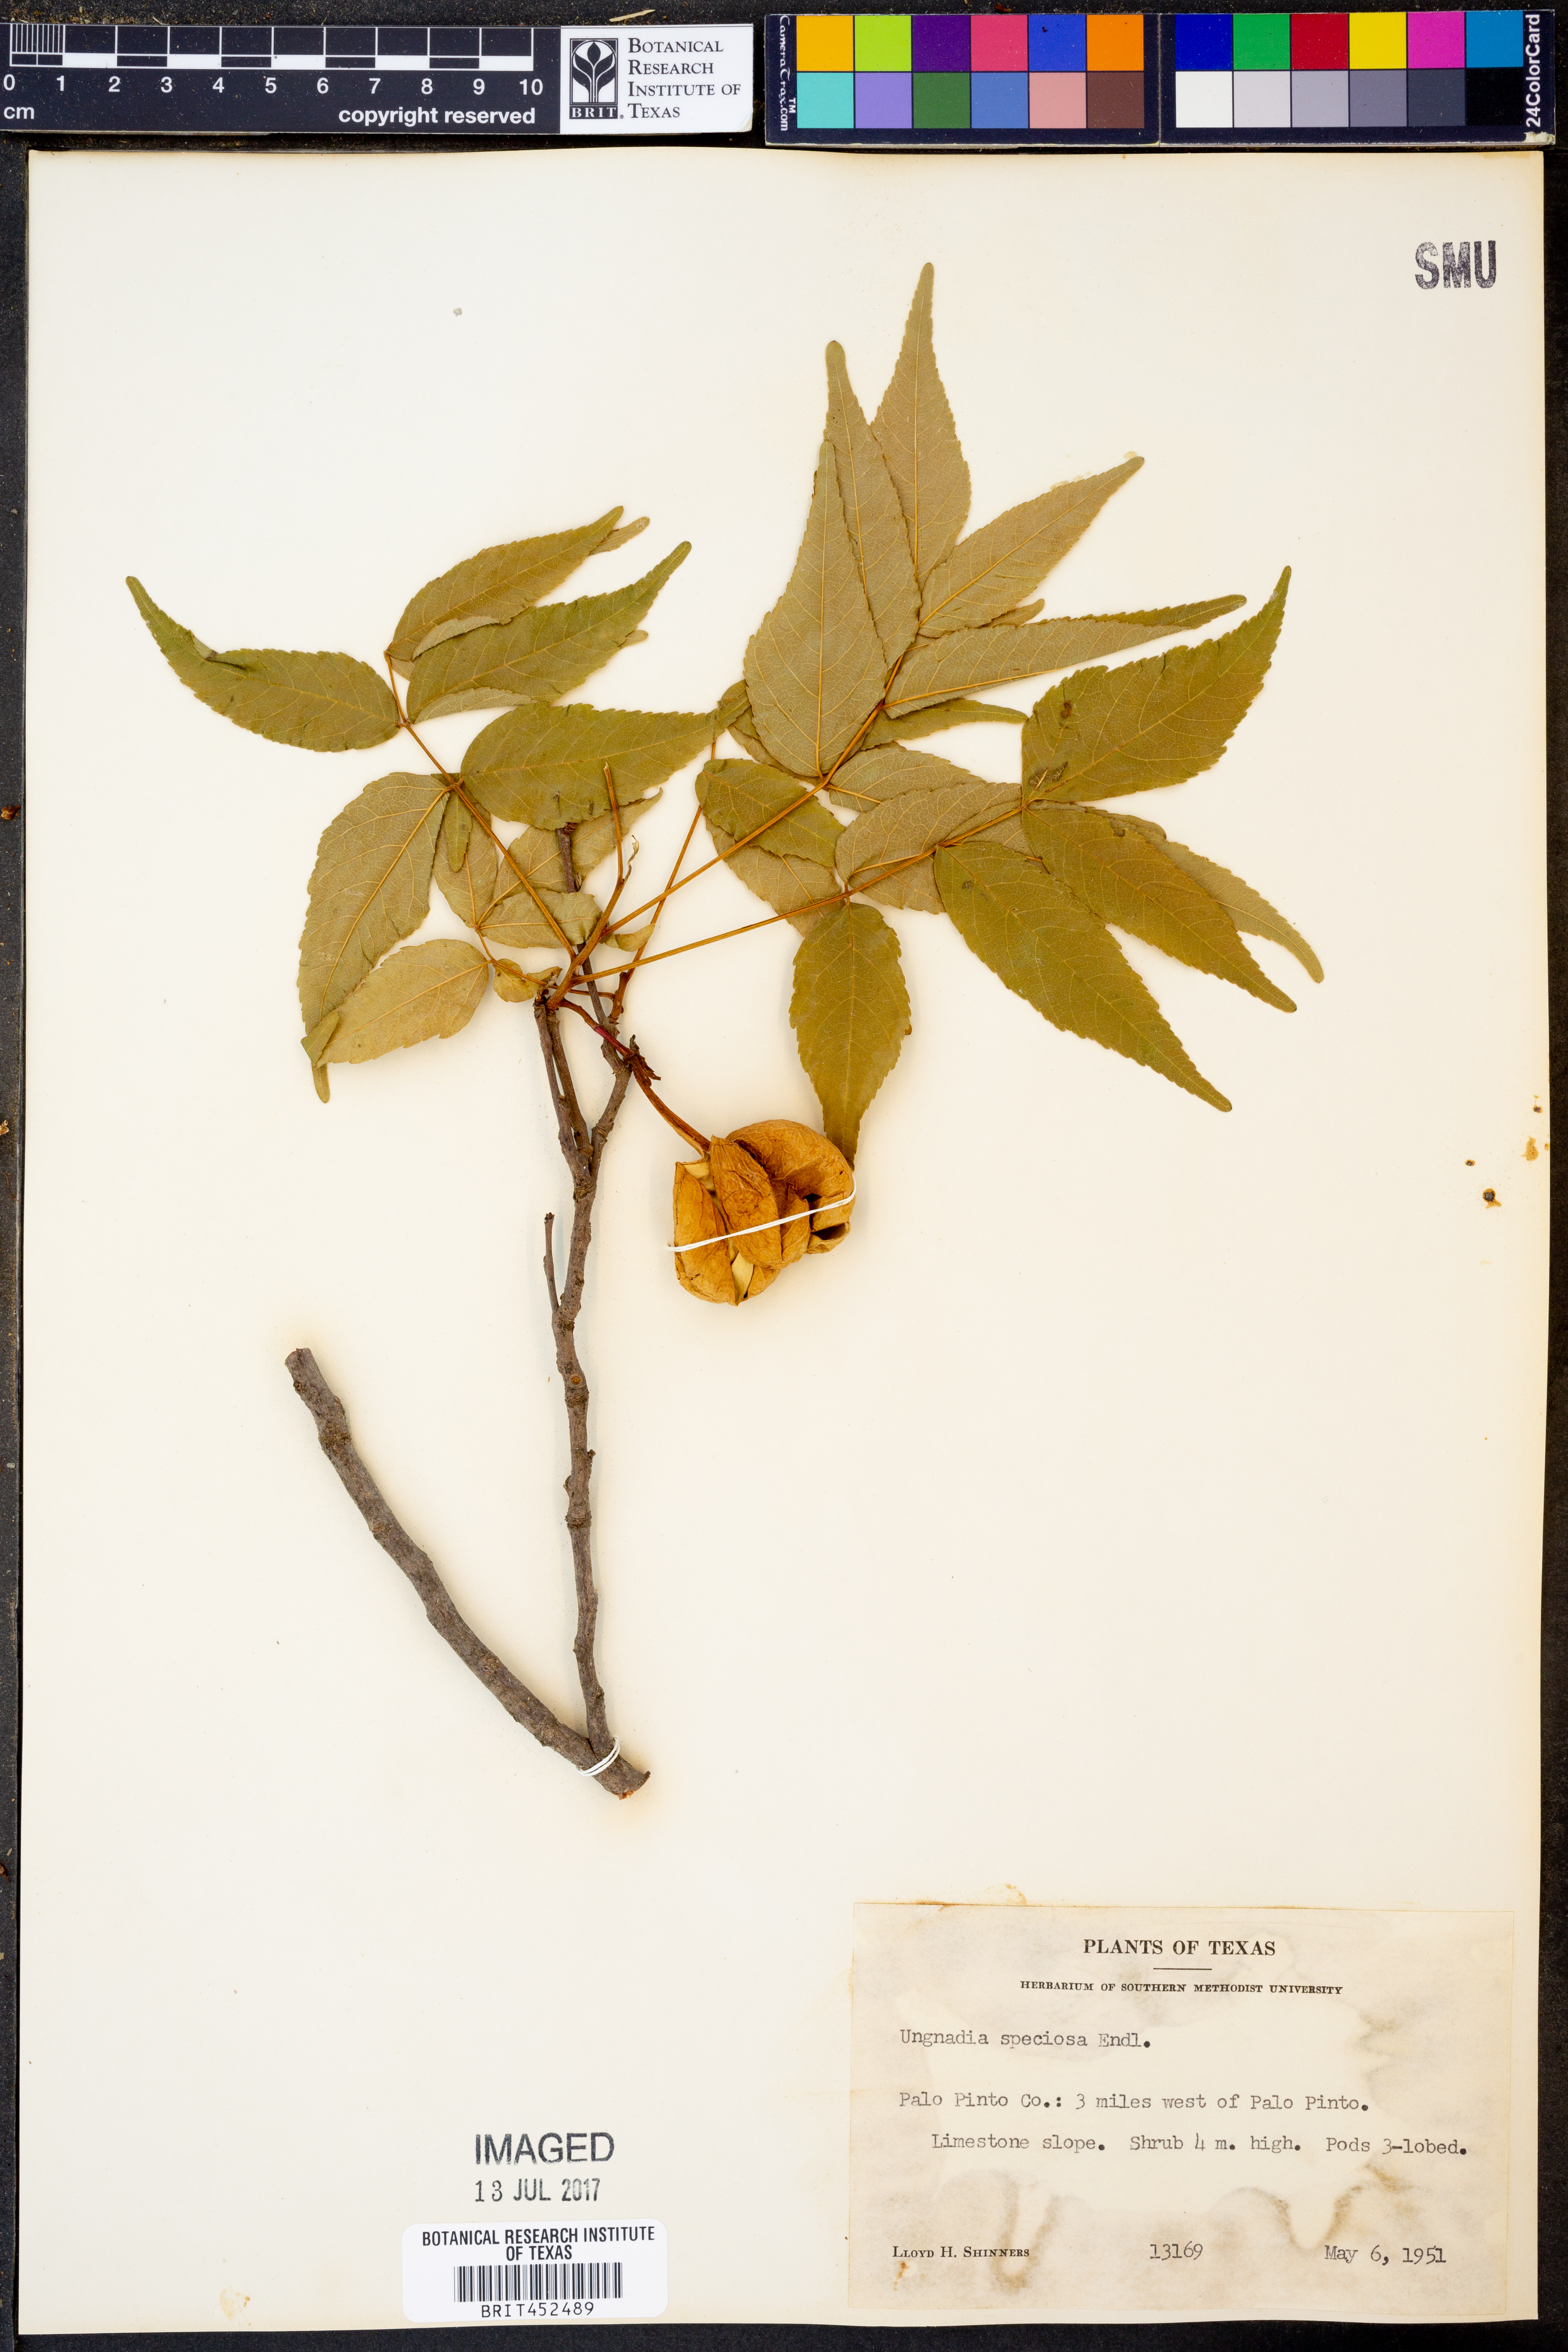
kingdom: Plantae
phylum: Tracheophyta
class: Magnoliopsida
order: Sapindales
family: Sapindaceae
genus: Ungnadia
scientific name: Ungnadia speciosa
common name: Texas-buckeye
